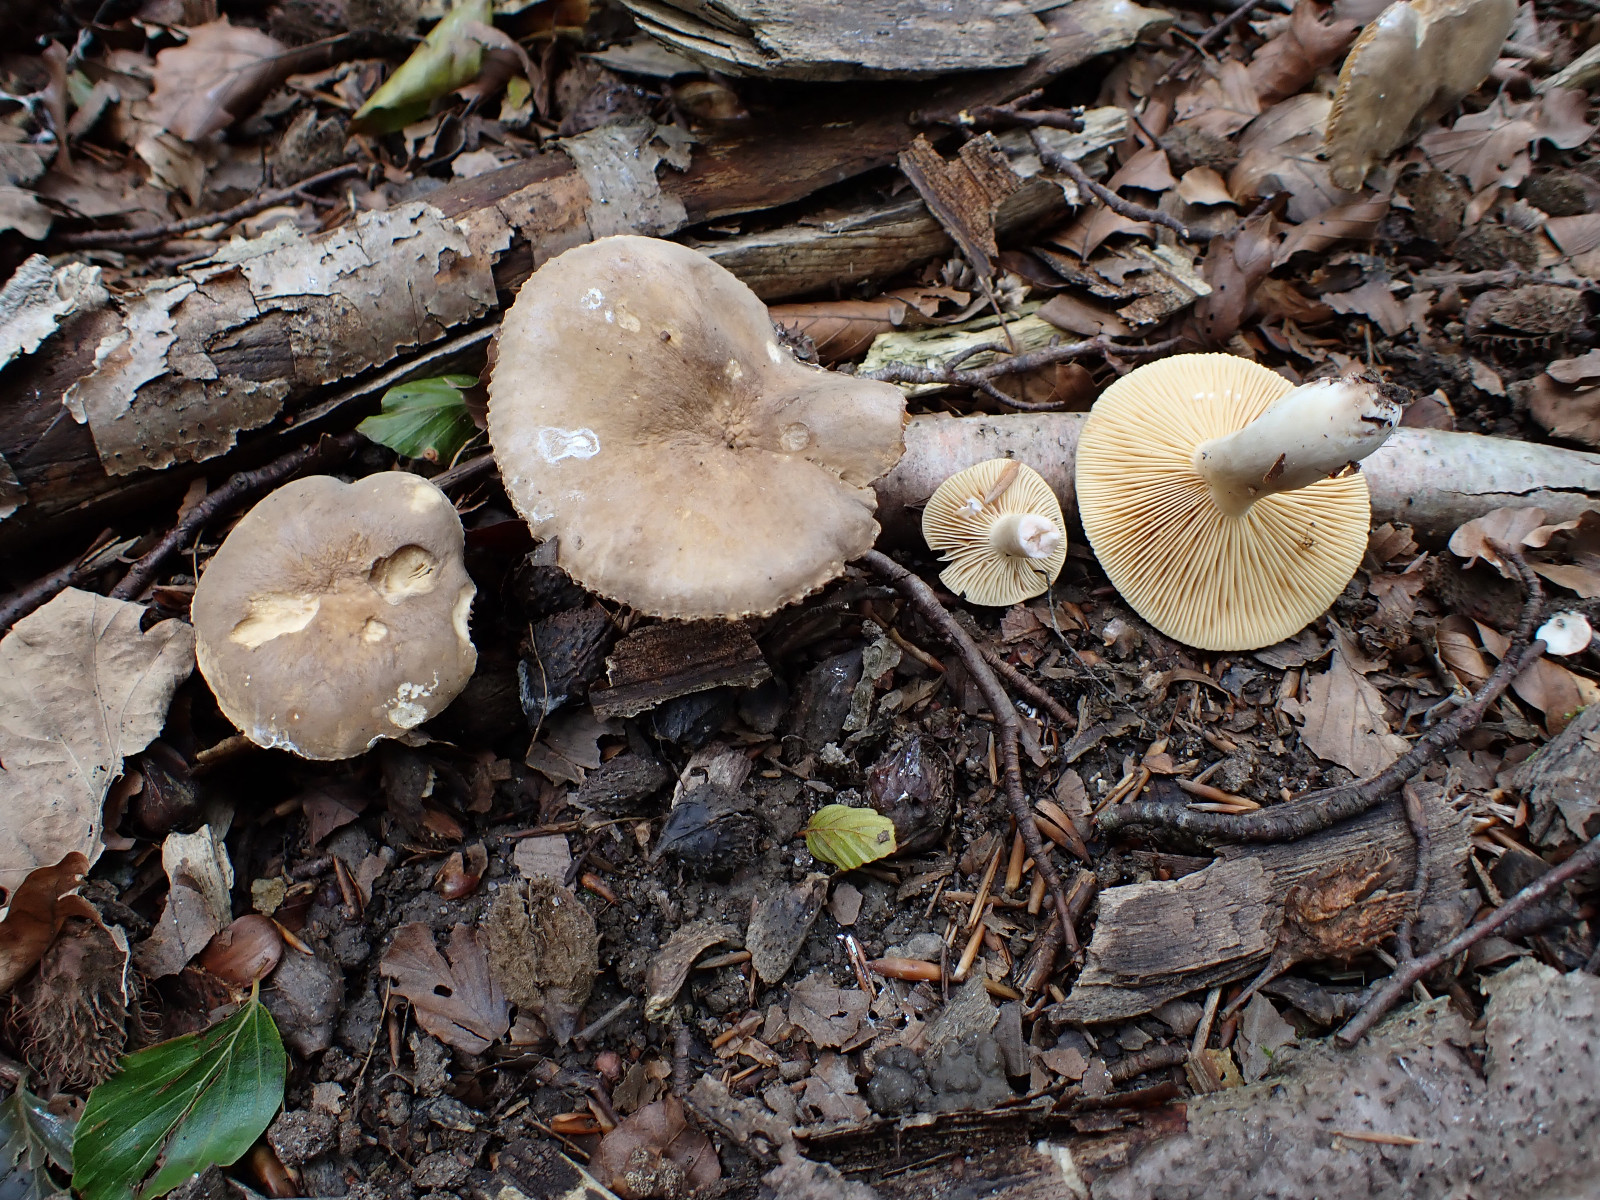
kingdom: Fungi
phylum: Basidiomycota
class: Agaricomycetes
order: Russulales
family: Russulaceae
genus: Lactarius
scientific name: Lactarius pterosporus
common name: vingesporet mælkehat
